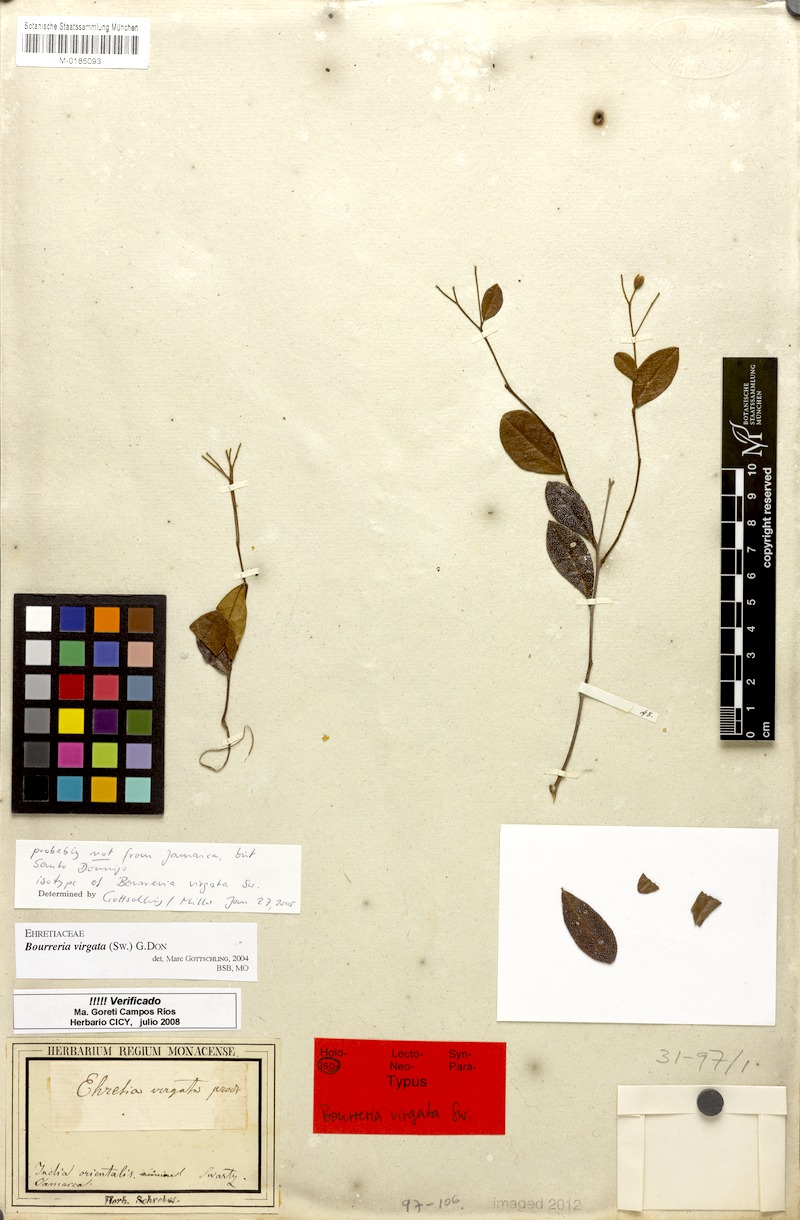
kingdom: Plantae
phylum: Tracheophyta
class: Magnoliopsida
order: Boraginales
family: Ehretiaceae
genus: Bourreria
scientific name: Bourreria virgata
